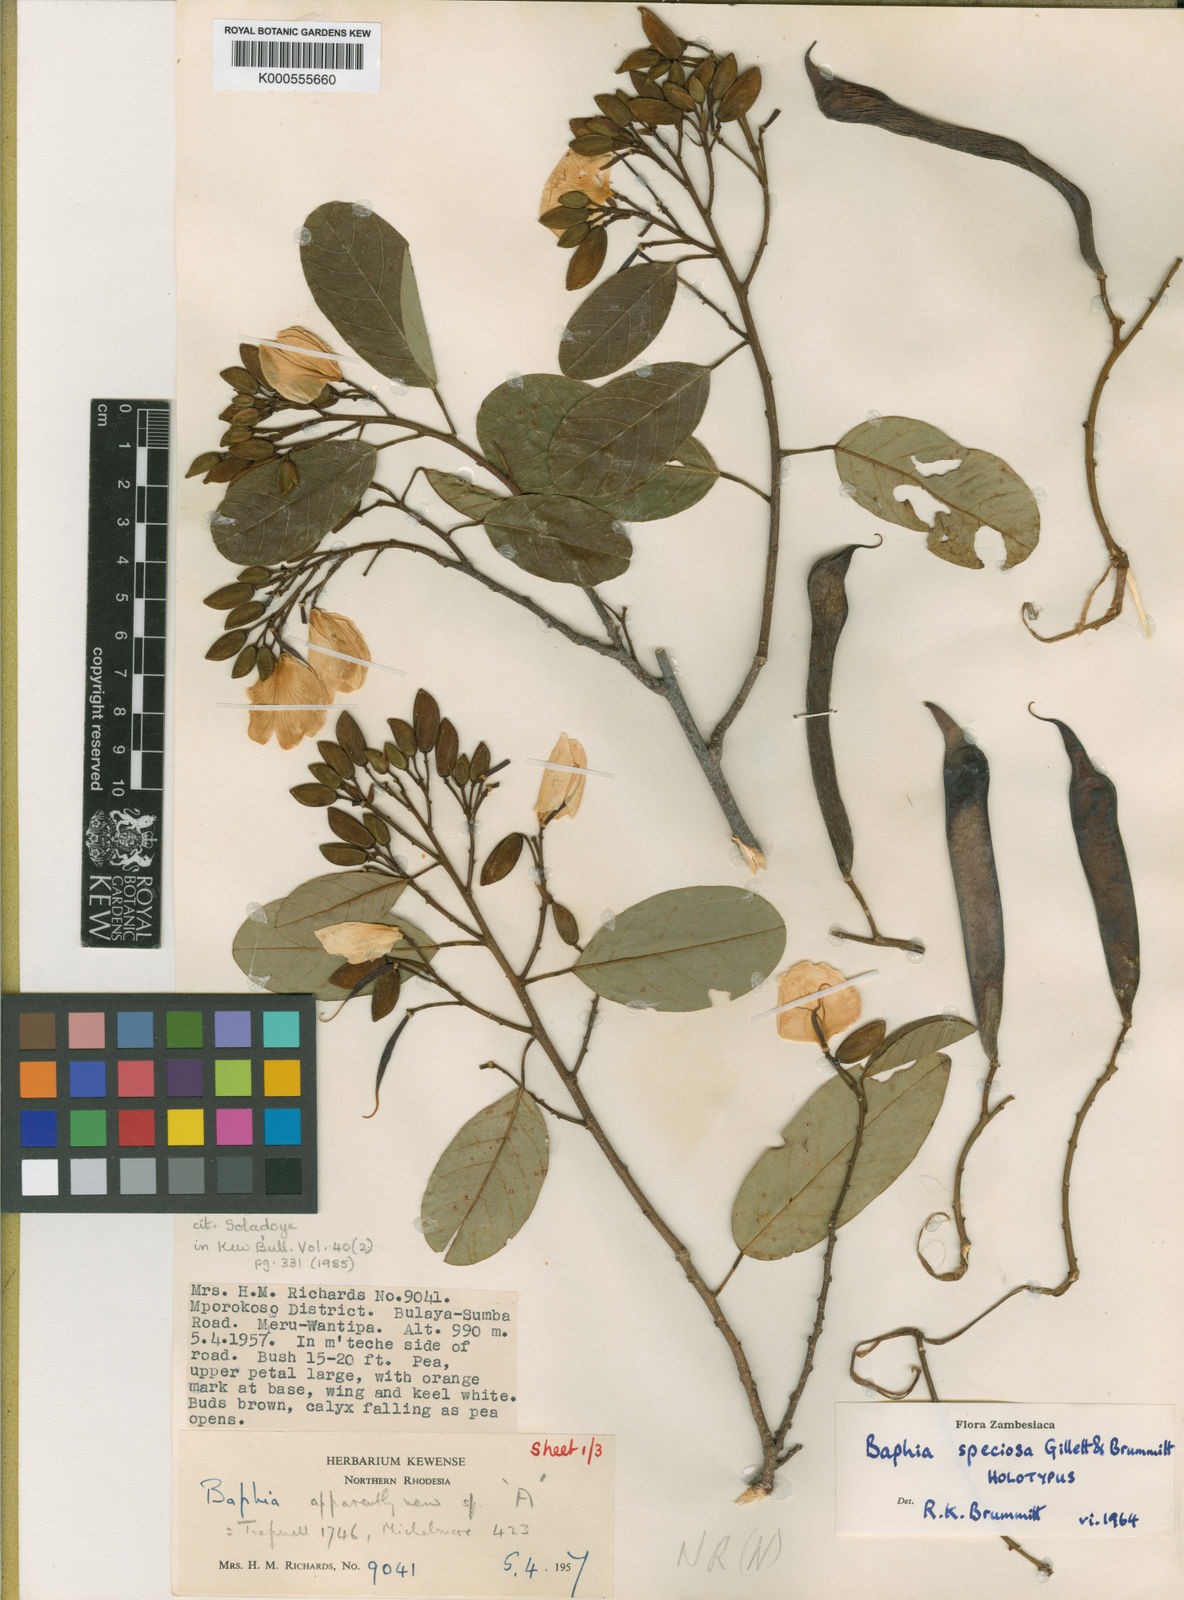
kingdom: Plantae
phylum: Tracheophyta
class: Magnoliopsida
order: Fabales
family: Fabaceae
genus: Baphia
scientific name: Baphia speciosa
